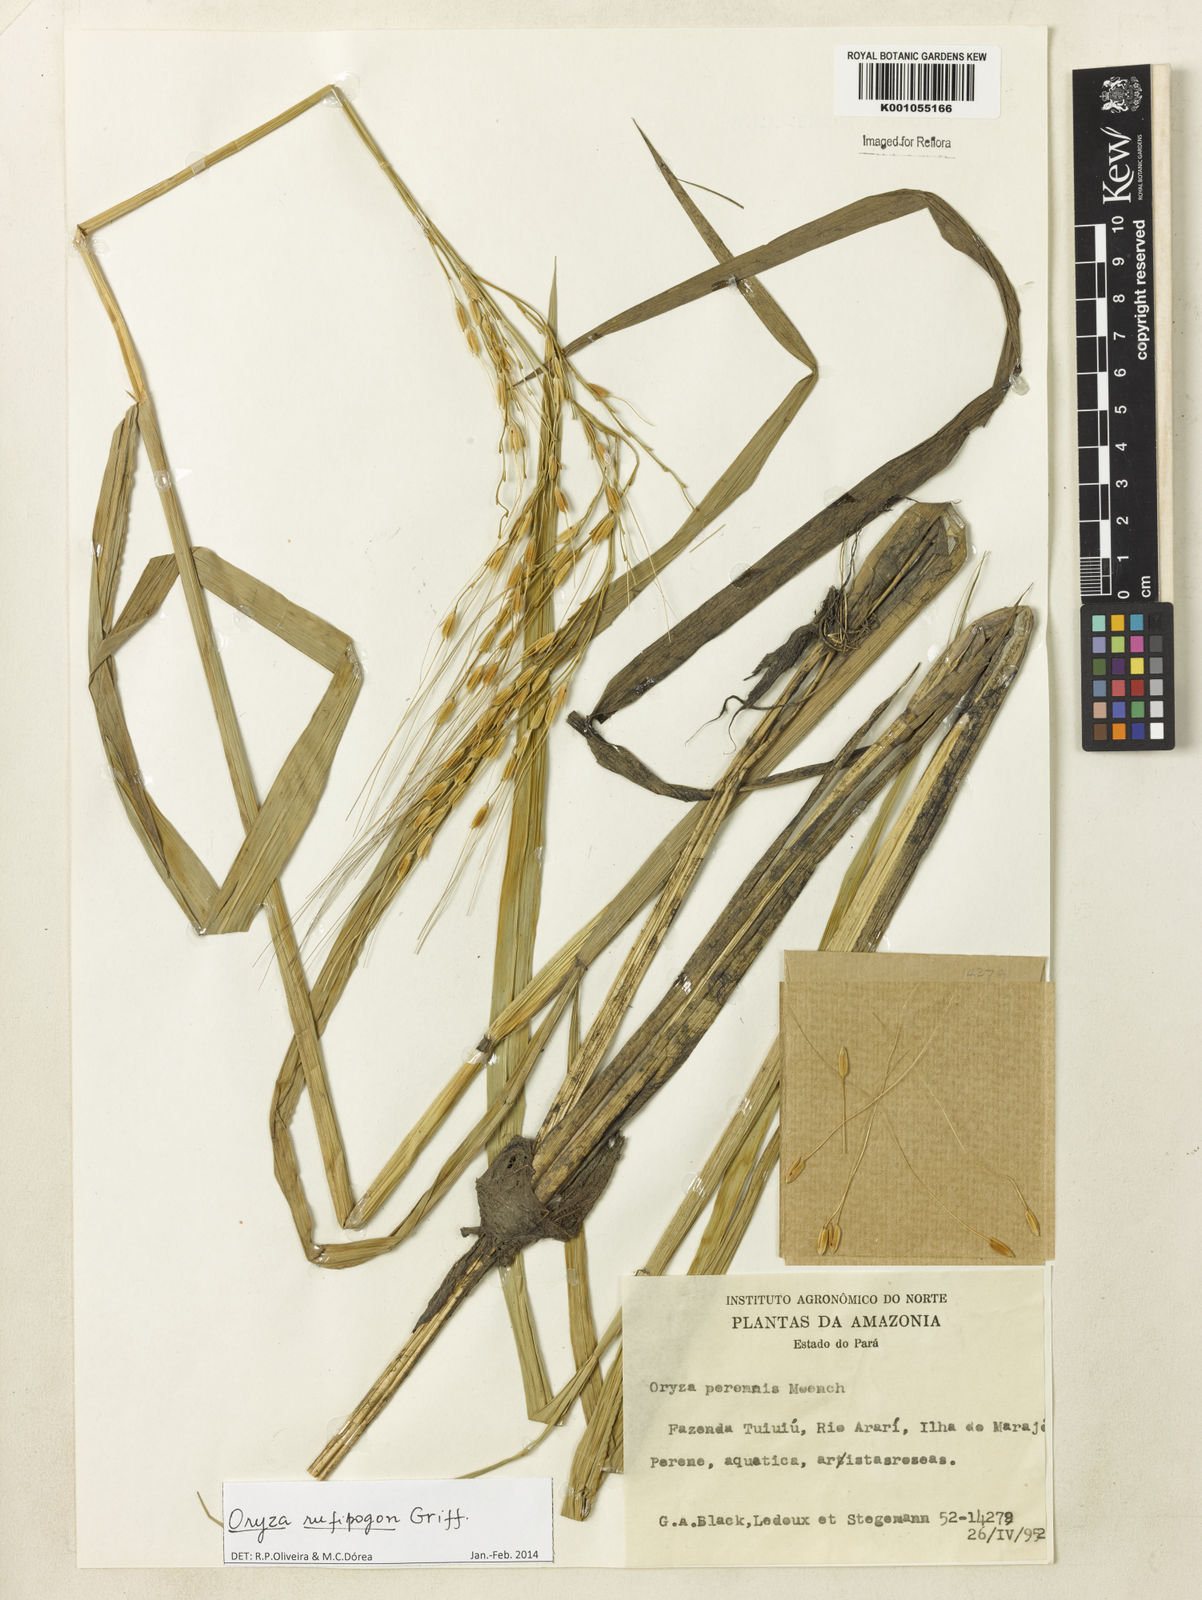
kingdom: Plantae
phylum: Tracheophyta
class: Liliopsida
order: Poales
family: Poaceae
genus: Oryza
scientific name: Oryza rufipogon
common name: Red rice
